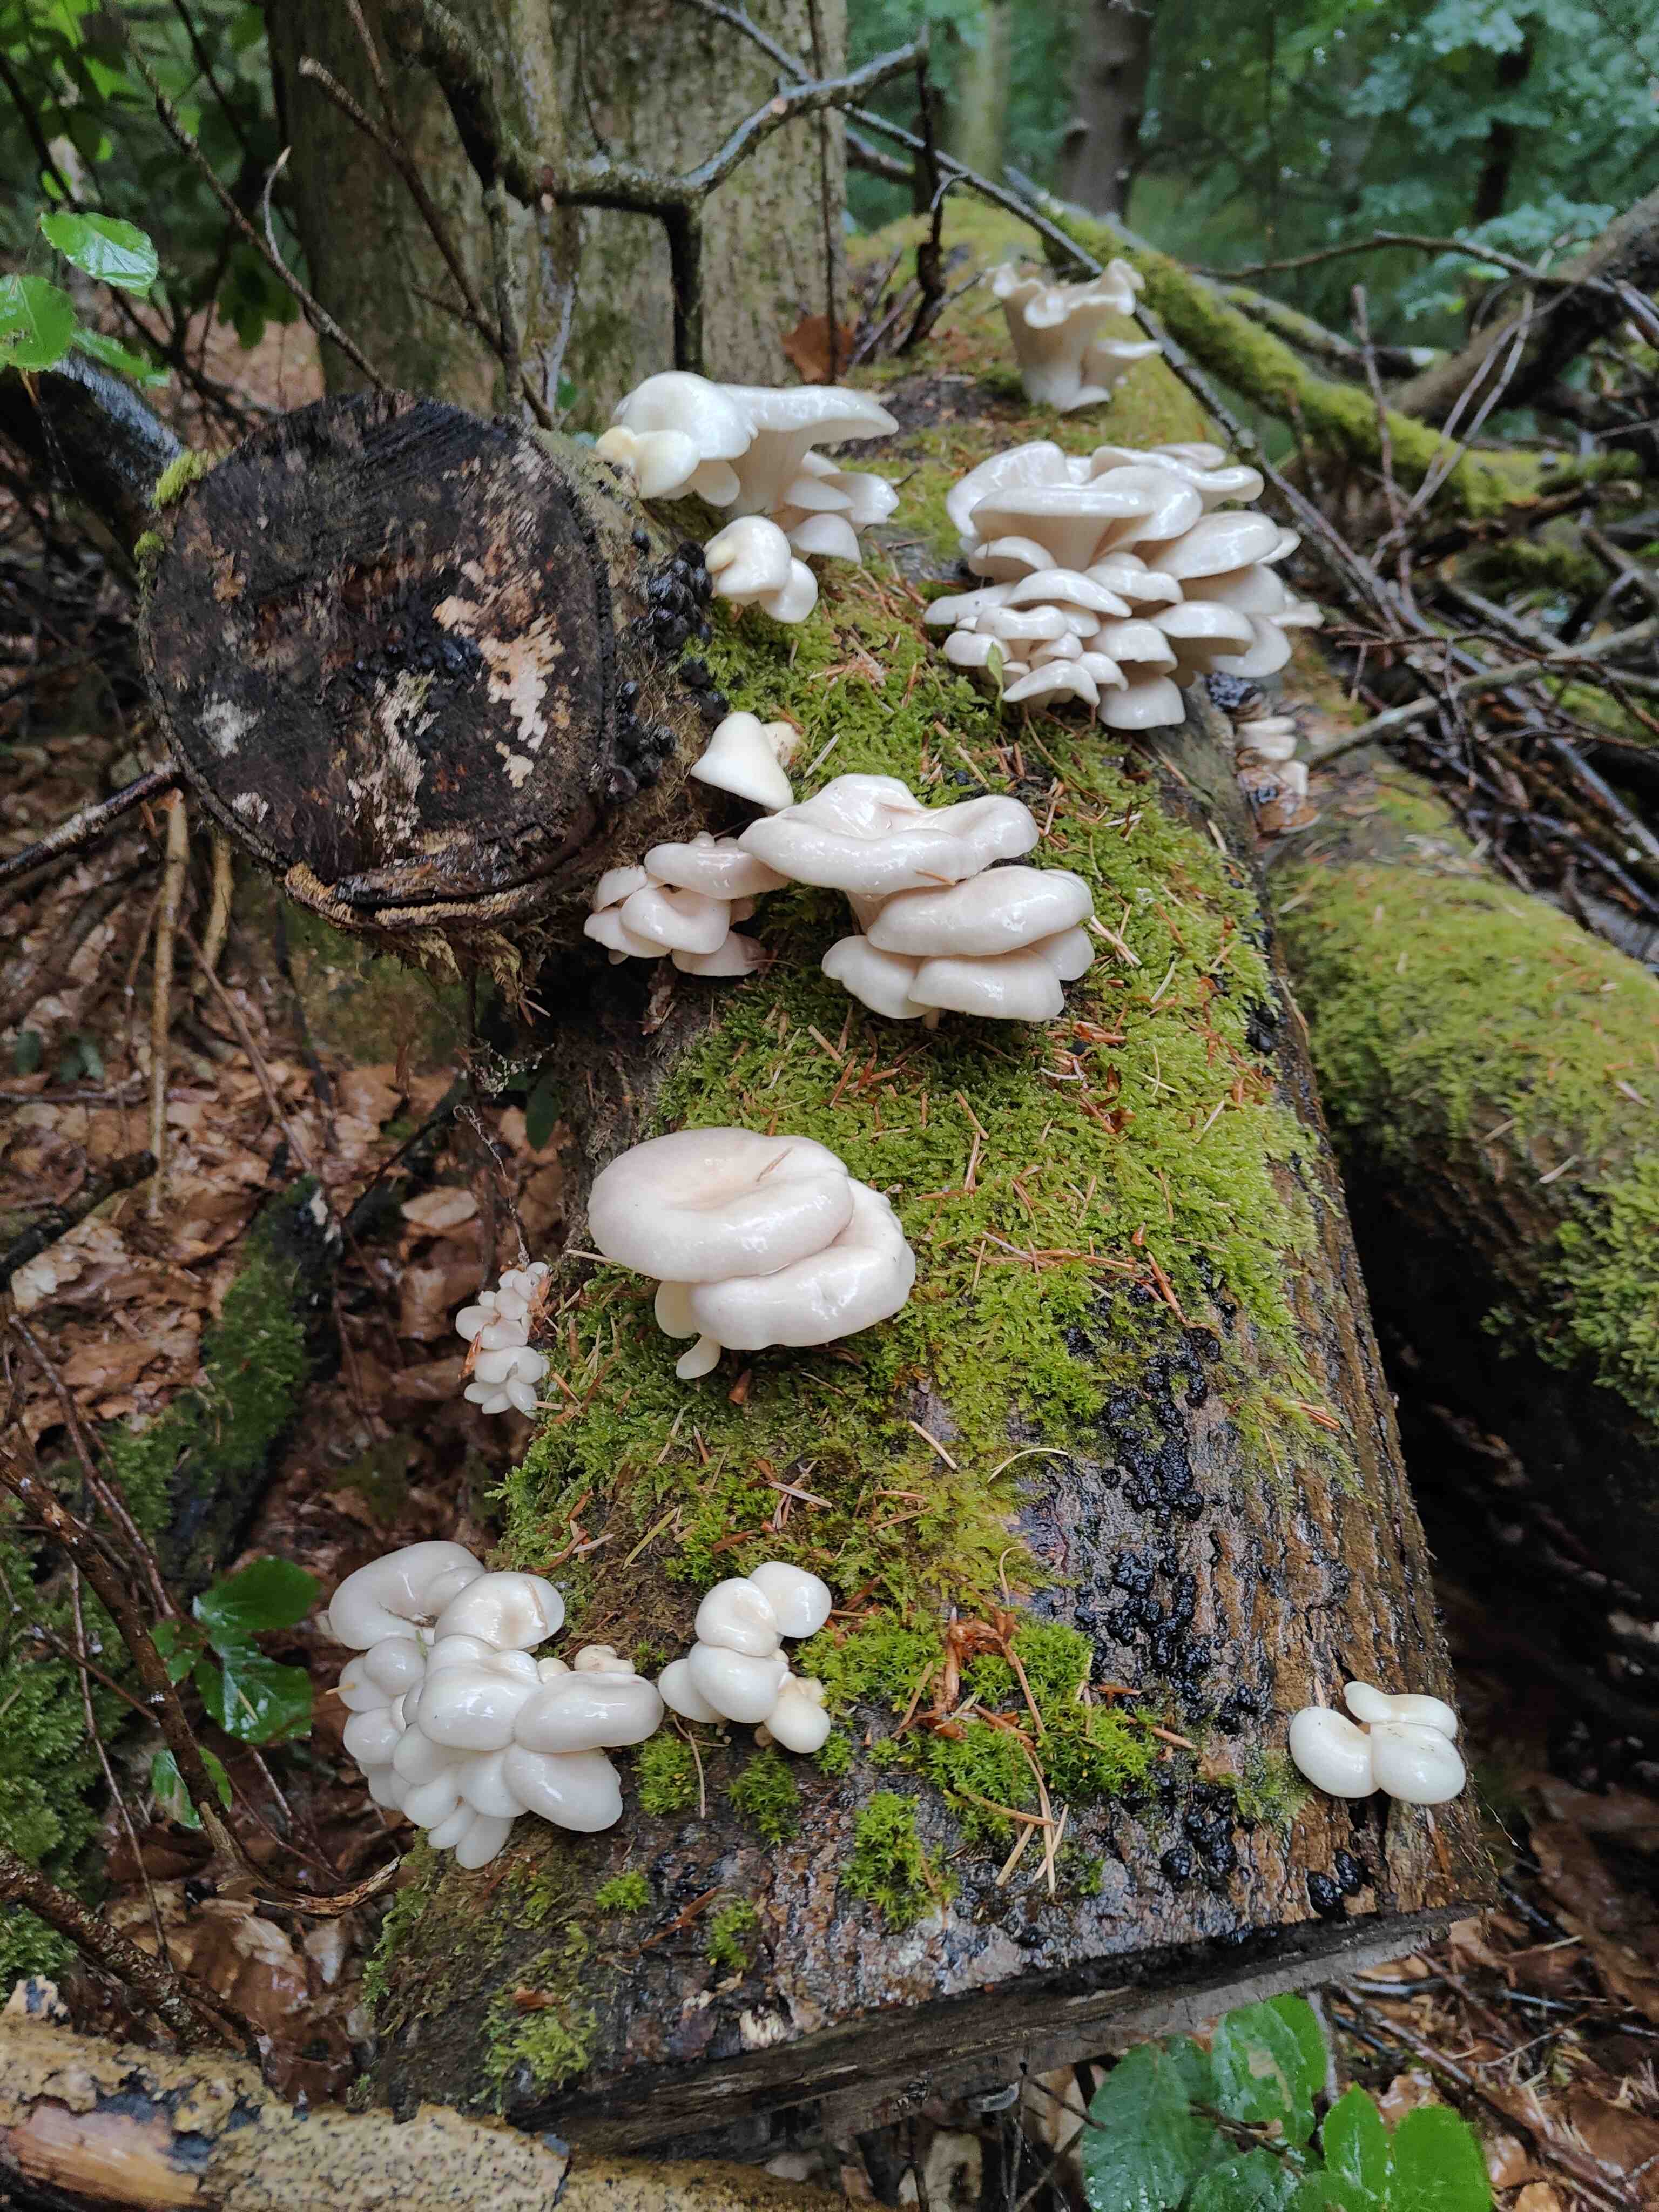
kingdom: Fungi
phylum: Basidiomycota
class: Agaricomycetes
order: Agaricales
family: Pleurotaceae
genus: Pleurotus
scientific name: Pleurotus pulmonarius
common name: sommer-østershat
